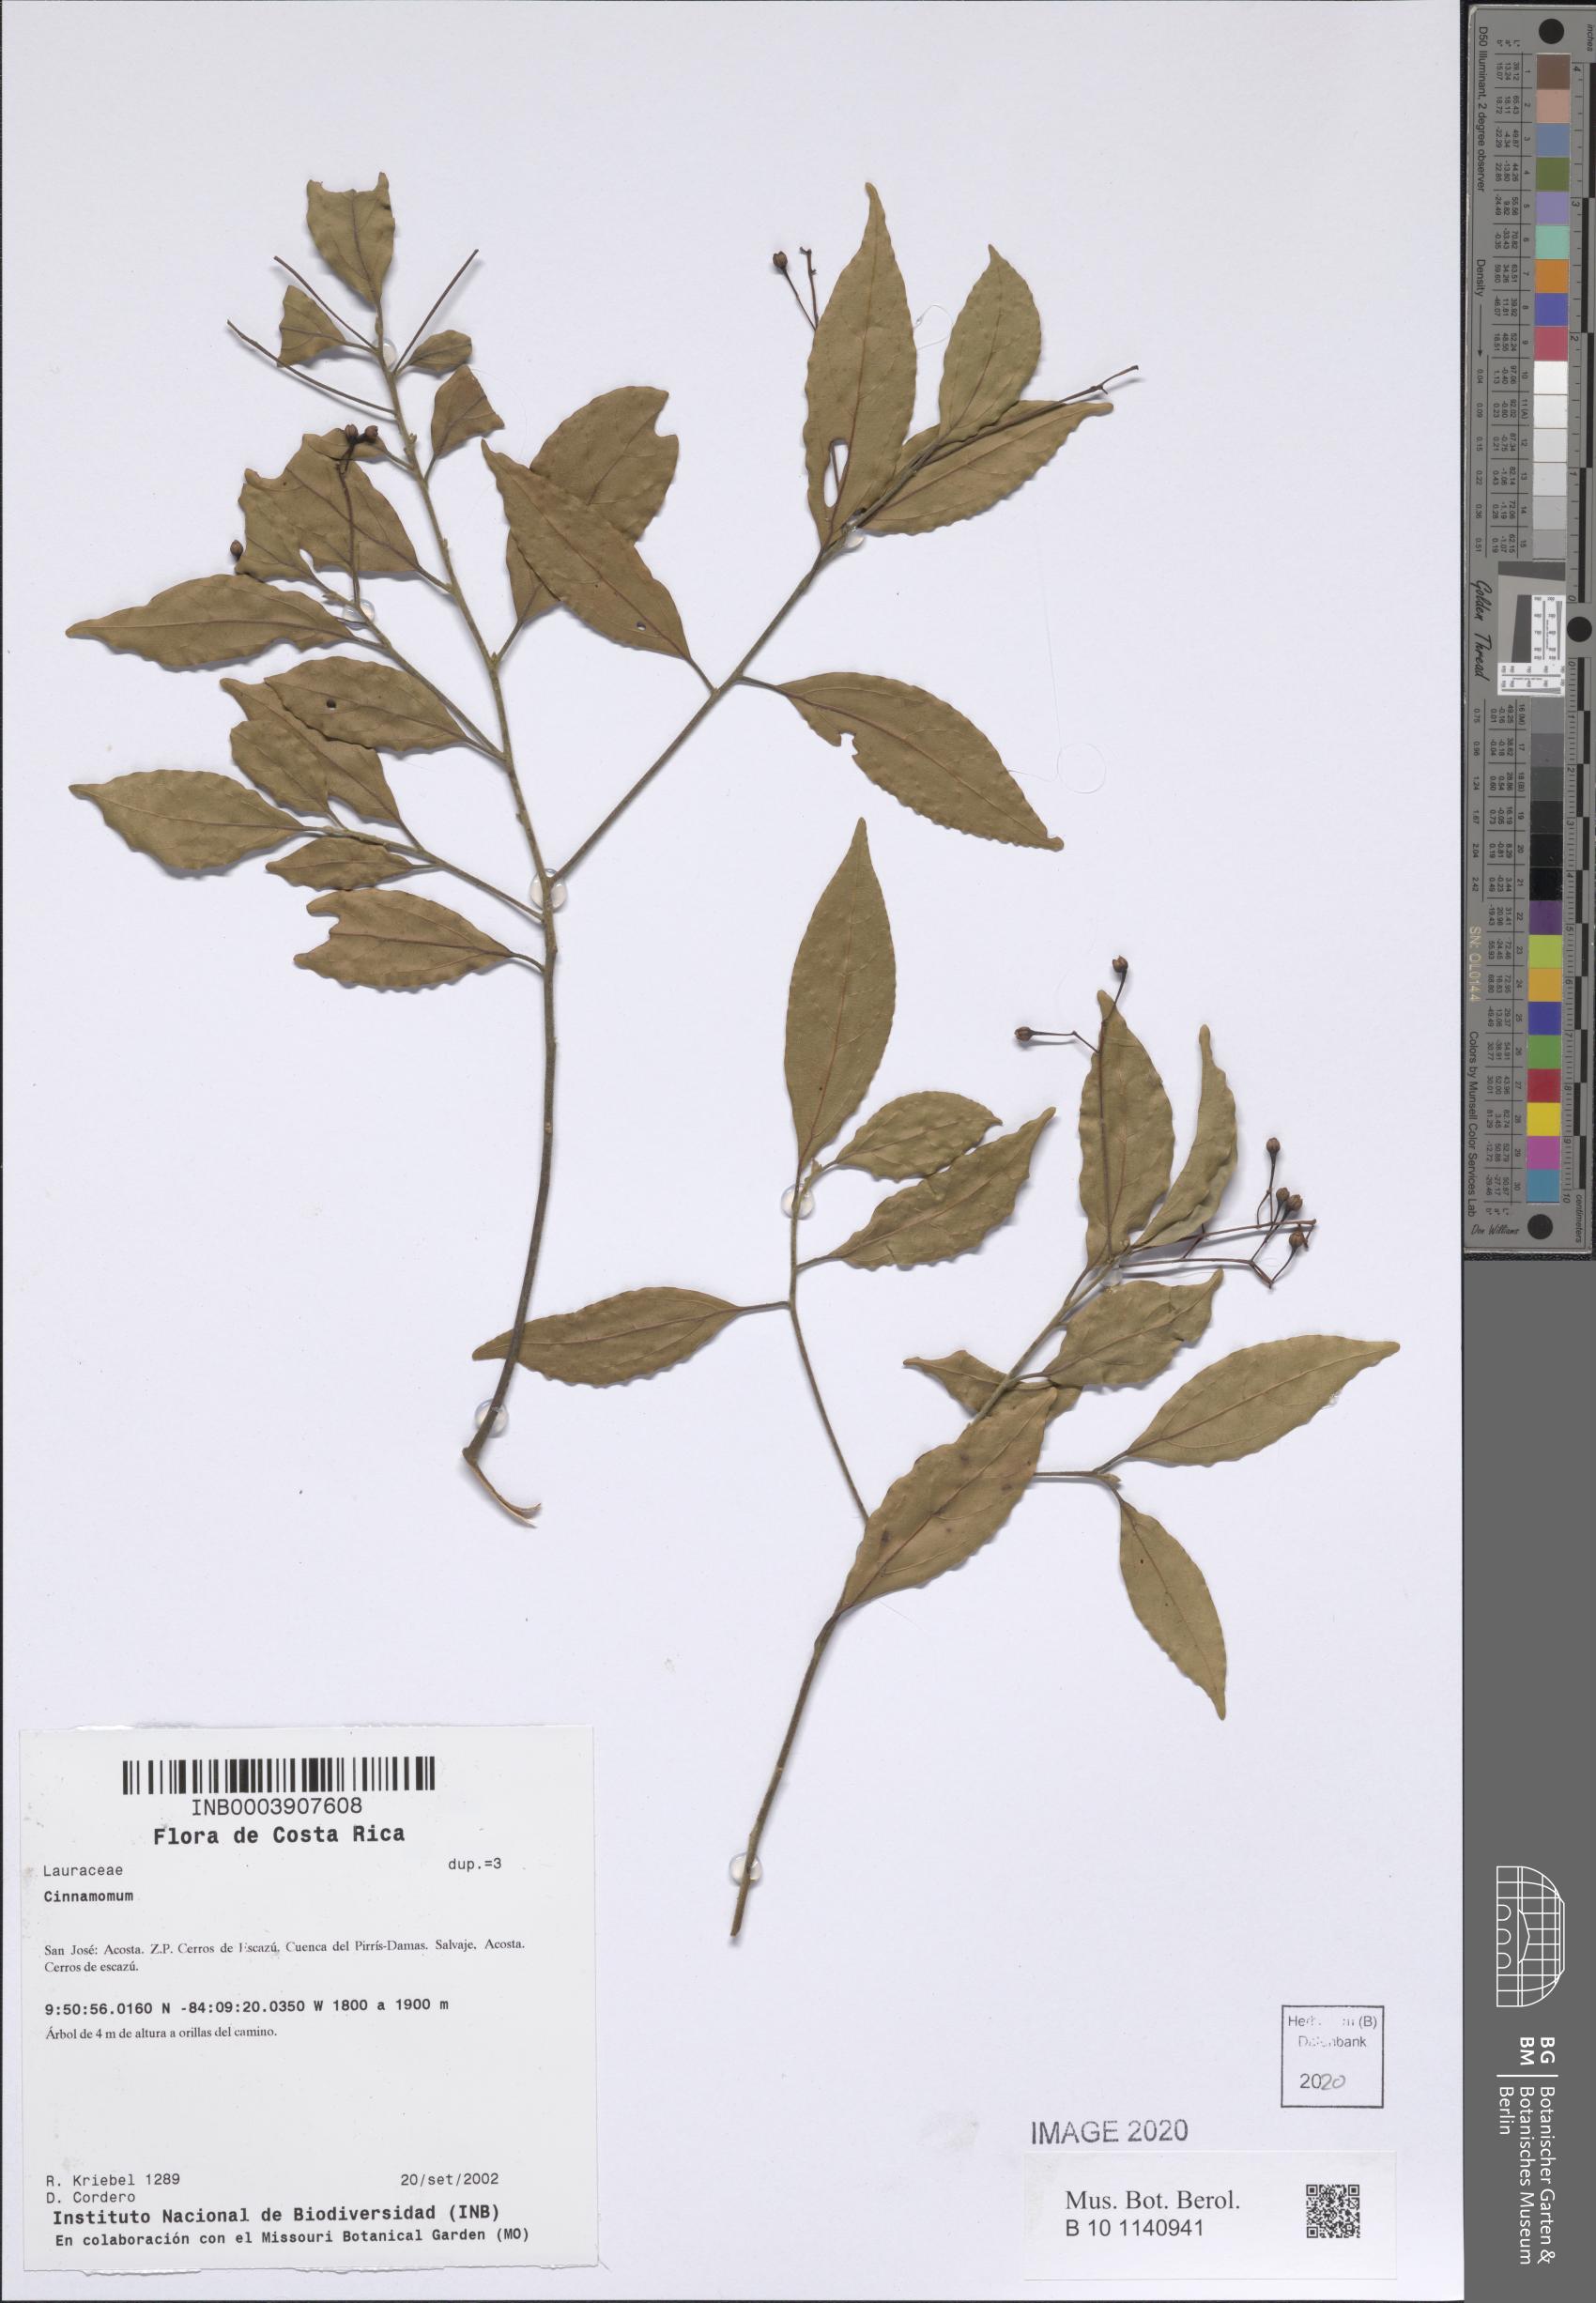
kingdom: Plantae
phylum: Tracheophyta
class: Magnoliopsida
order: Laurales
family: Lauraceae
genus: Cinnamomum
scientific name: Cinnamomum
